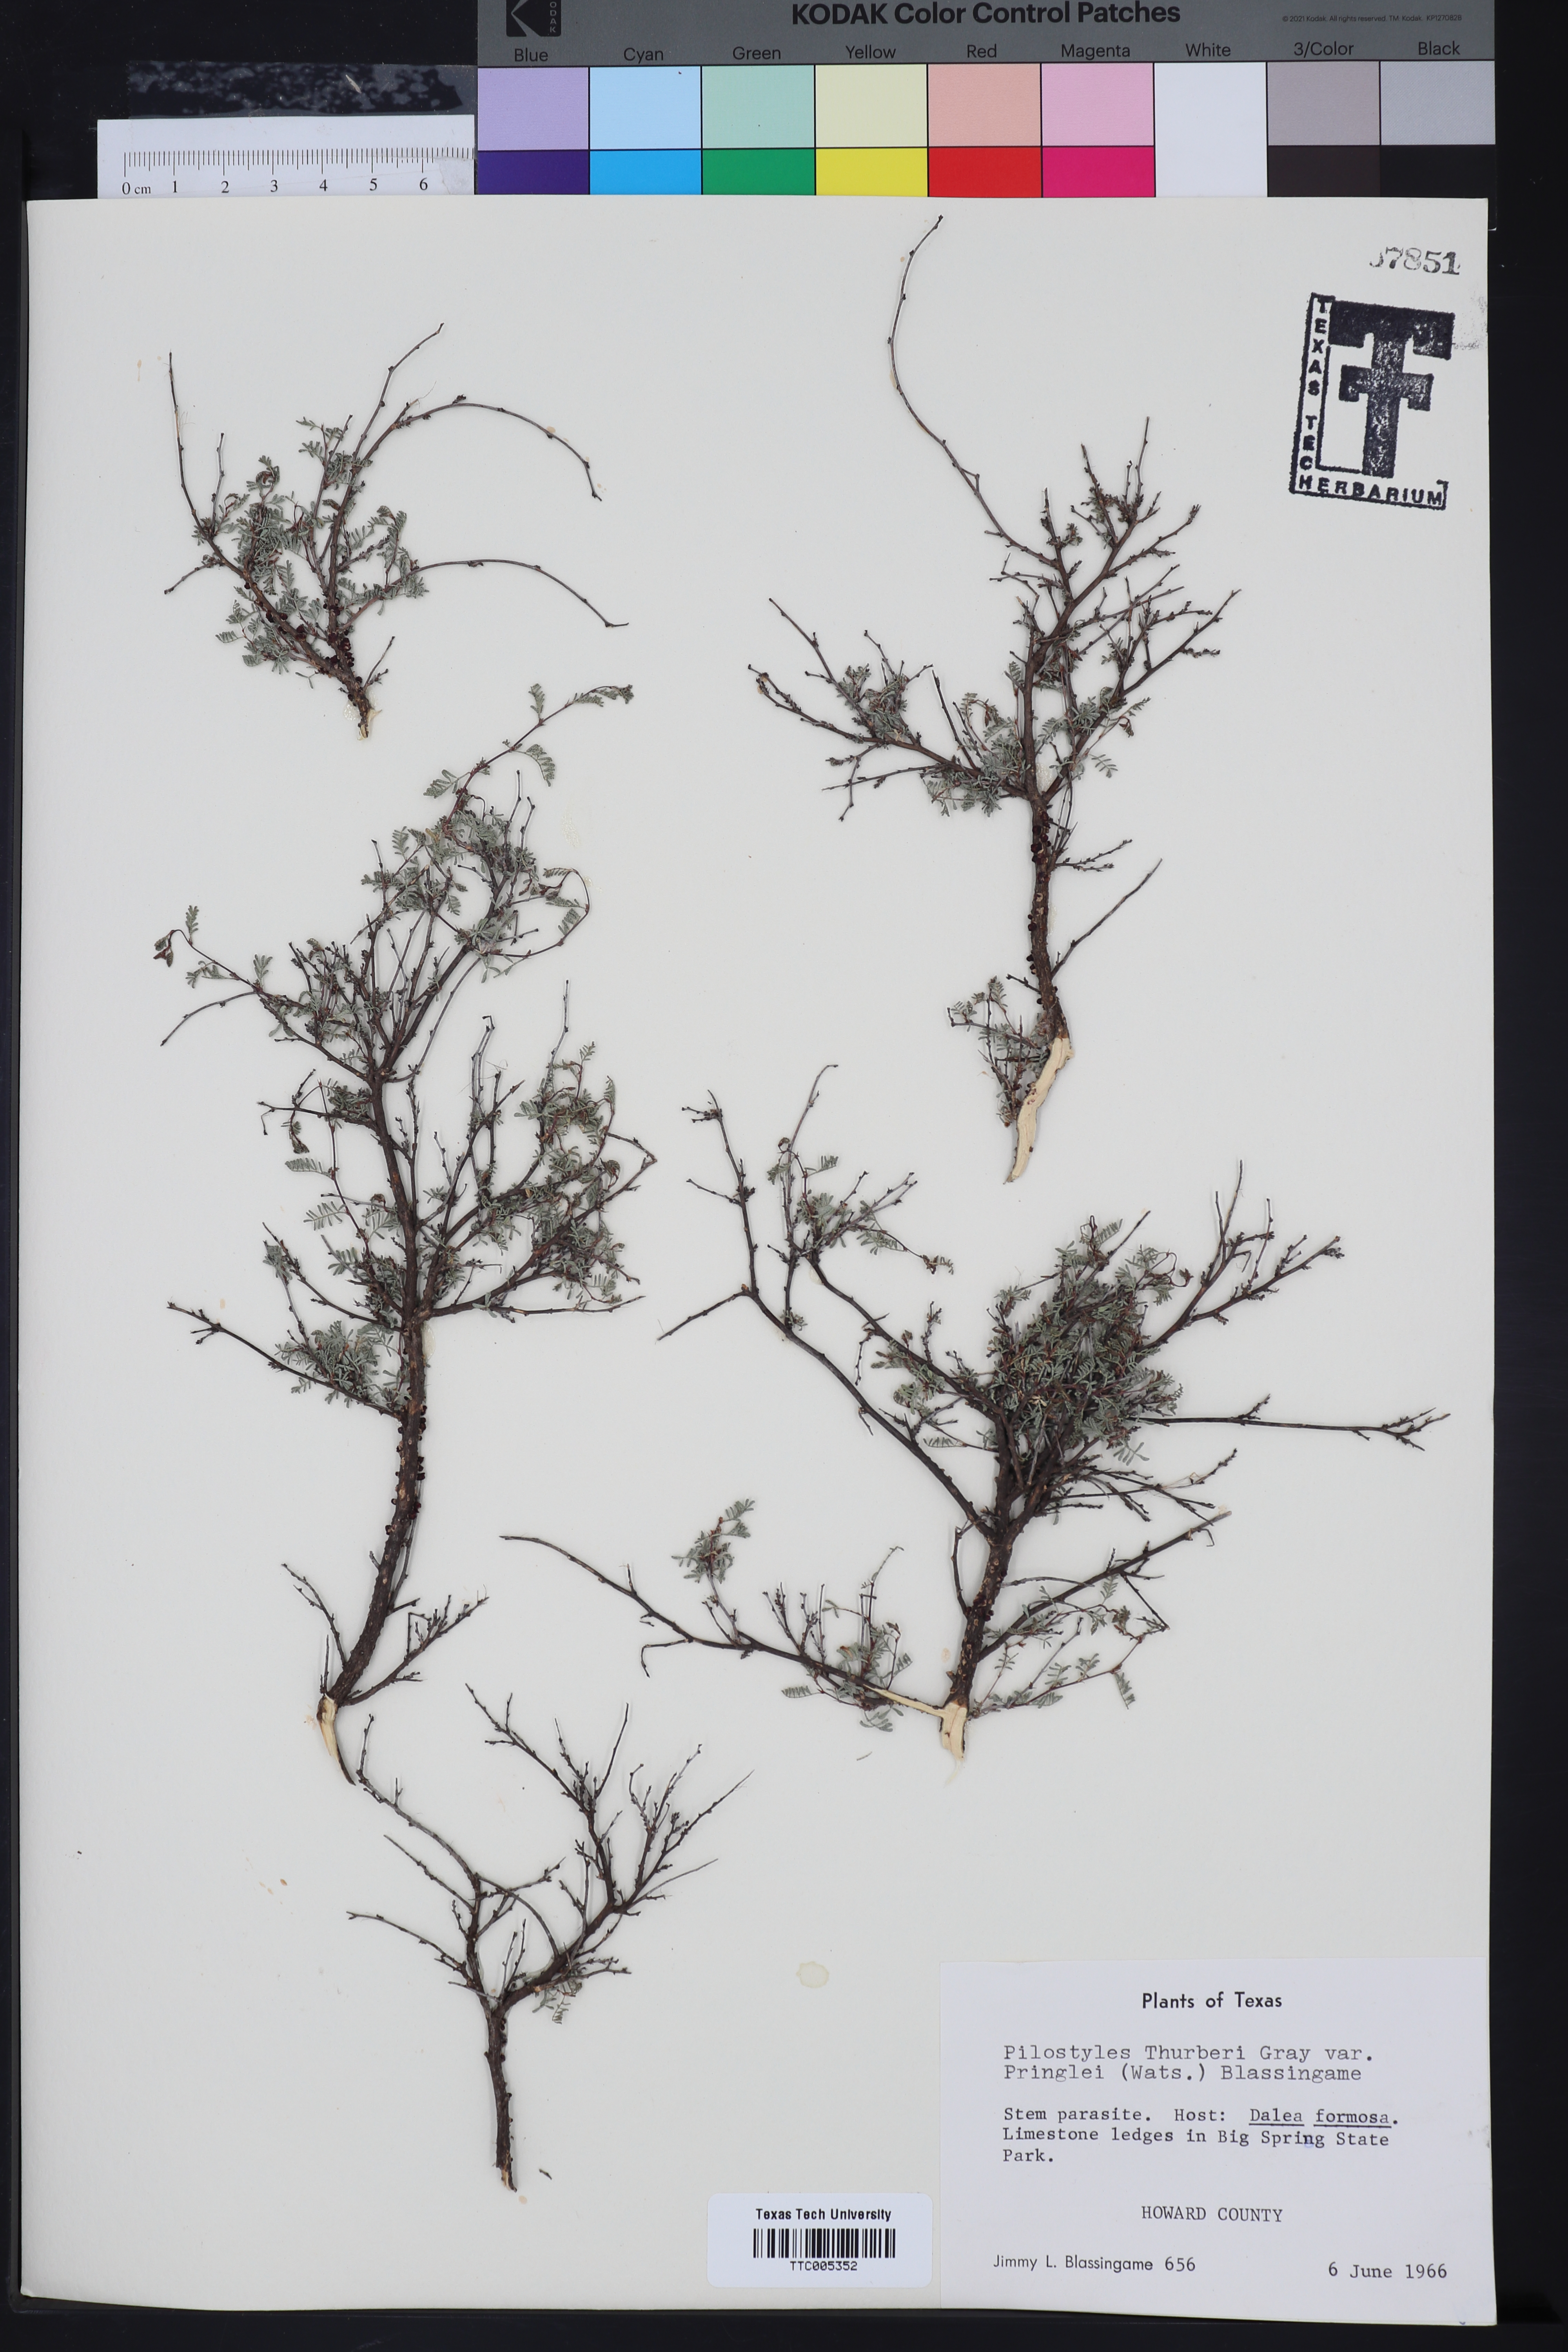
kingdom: Plantae
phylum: Tracheophyta
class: Magnoliopsida
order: Cucurbitales
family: Apodanthaceae
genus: Pilostyles
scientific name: Pilostyles thurberi
